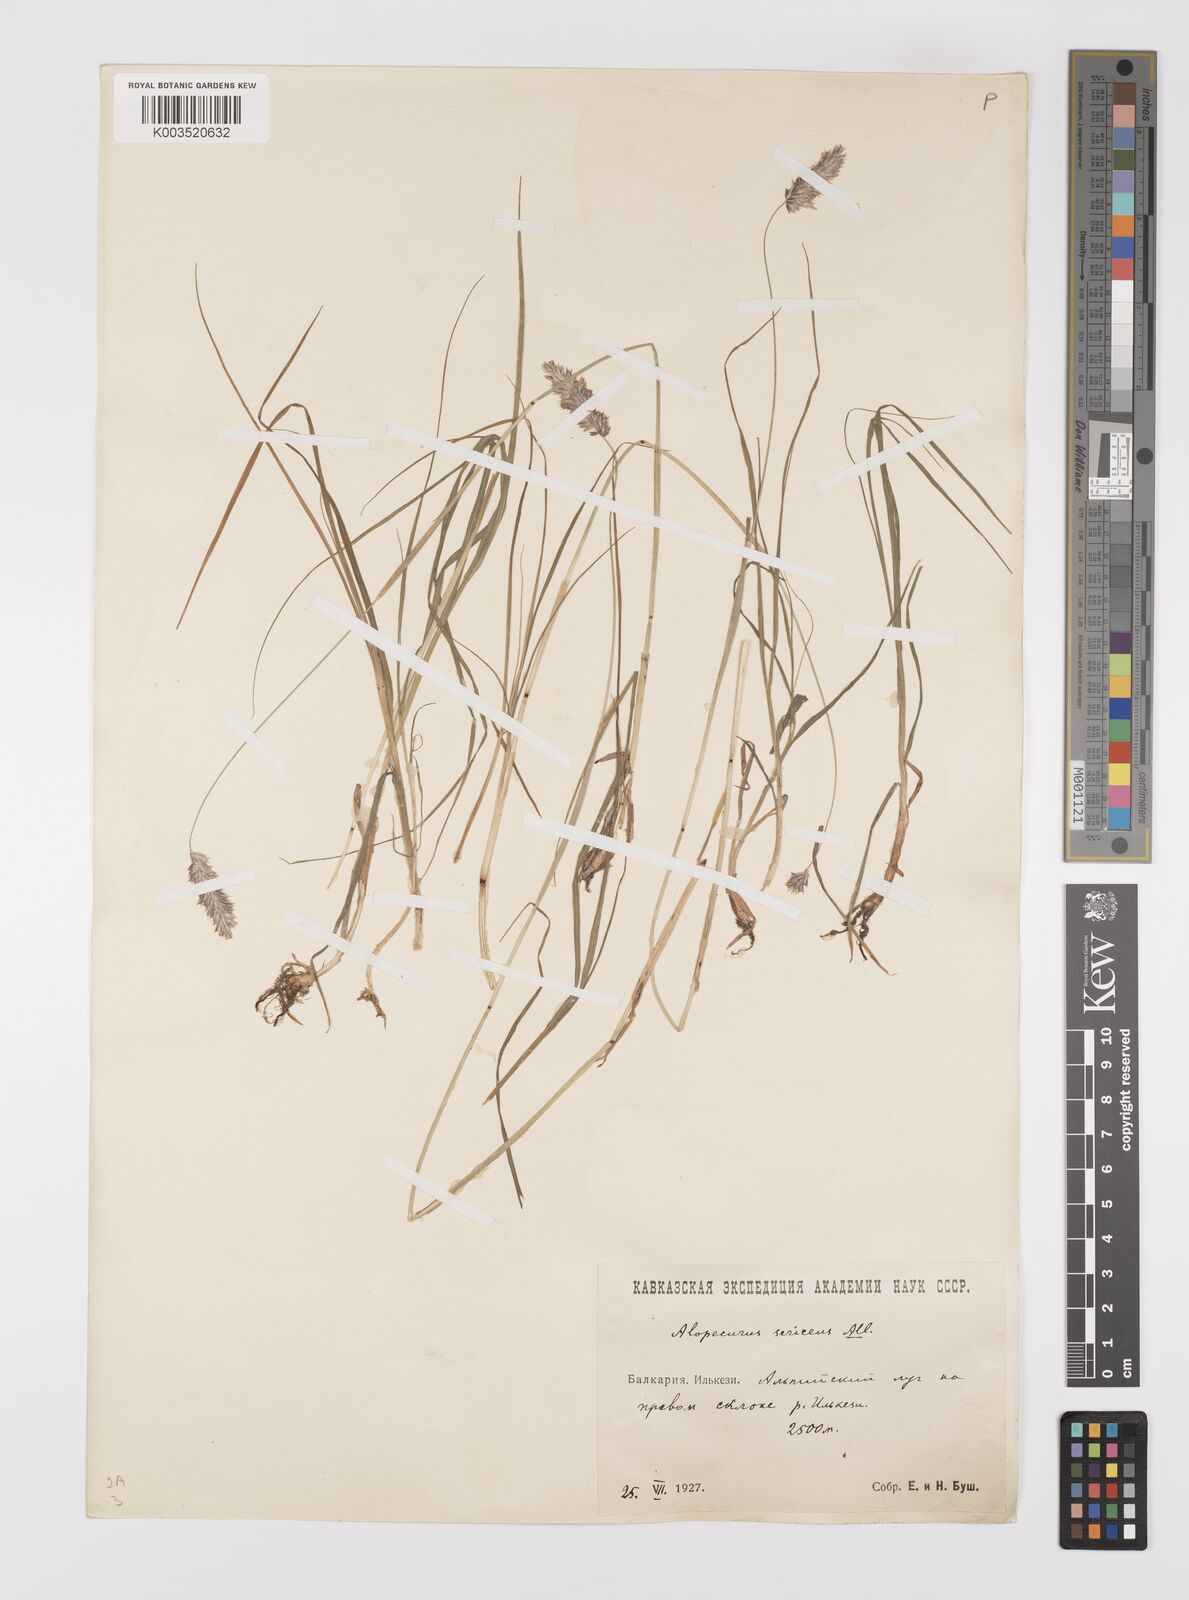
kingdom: Plantae
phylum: Tracheophyta
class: Liliopsida
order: Poales
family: Poaceae
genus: Alopecurus
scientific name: Alopecurus ponticus
